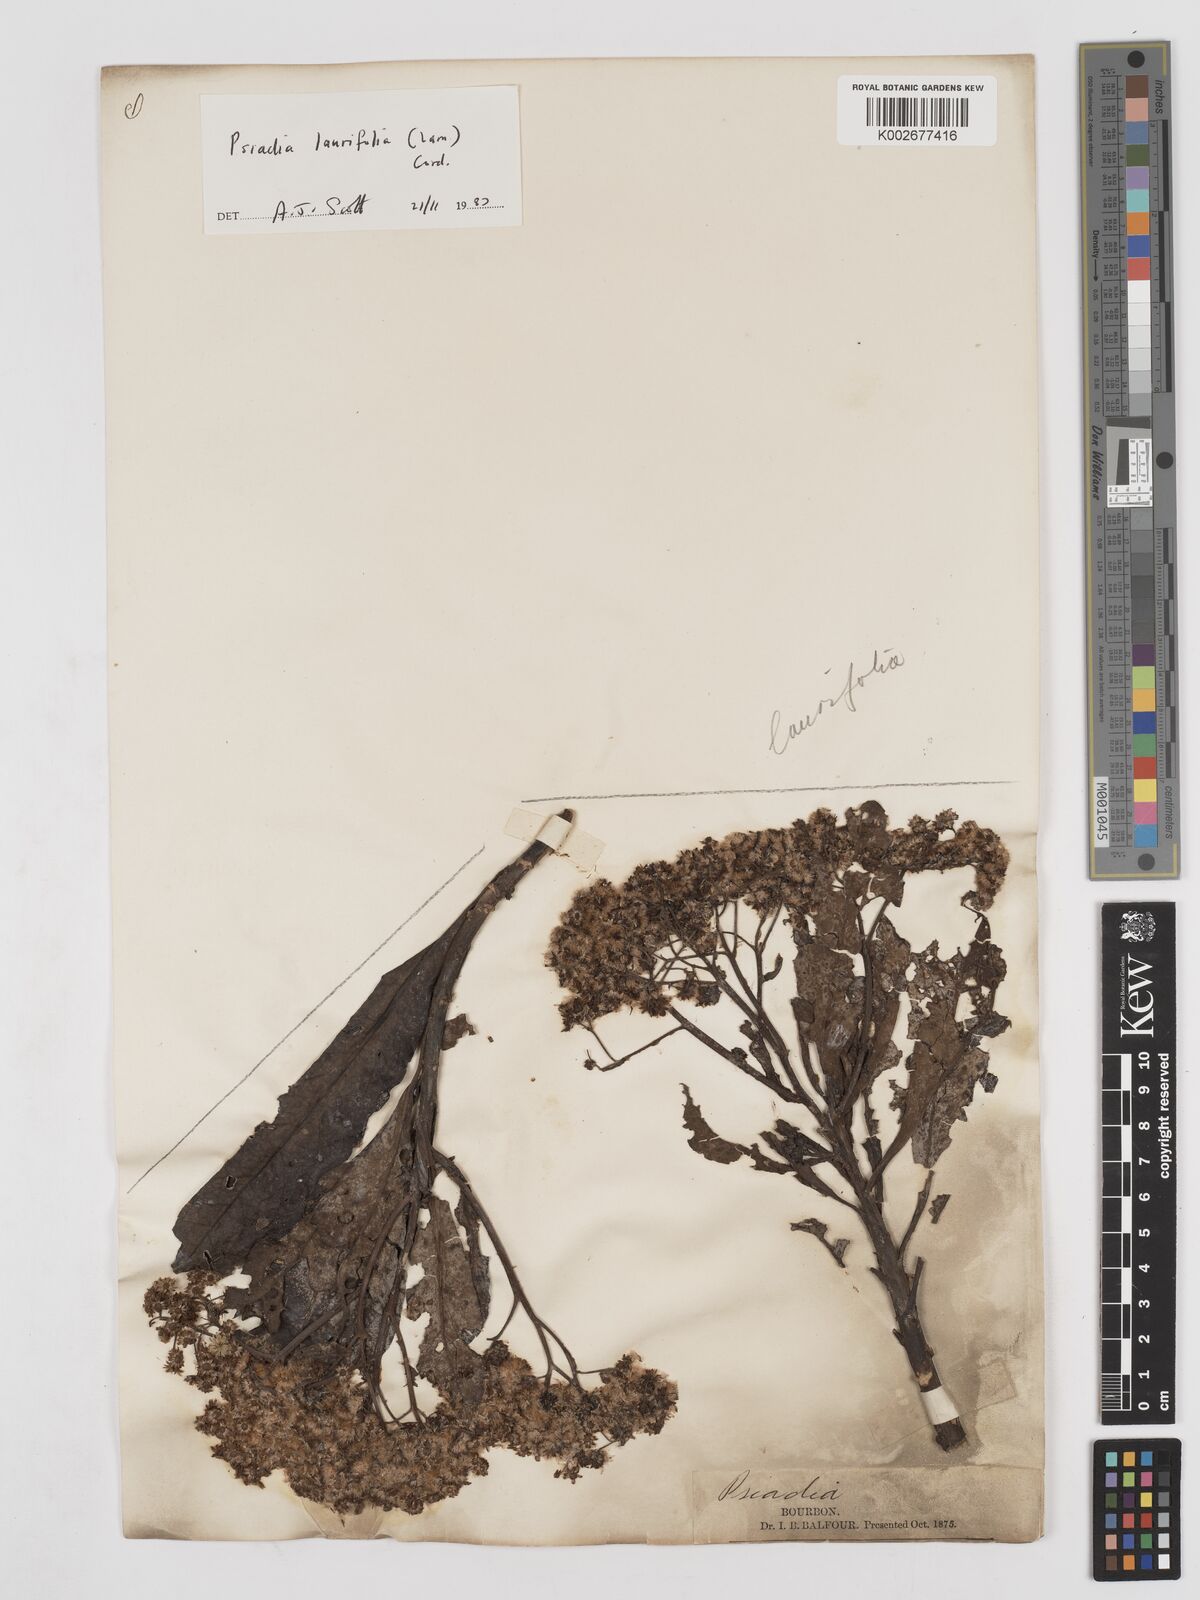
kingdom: Plantae
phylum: Tracheophyta
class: Magnoliopsida
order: Asterales
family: Asteraceae
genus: Psiadia
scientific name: Psiadia laurifolia
